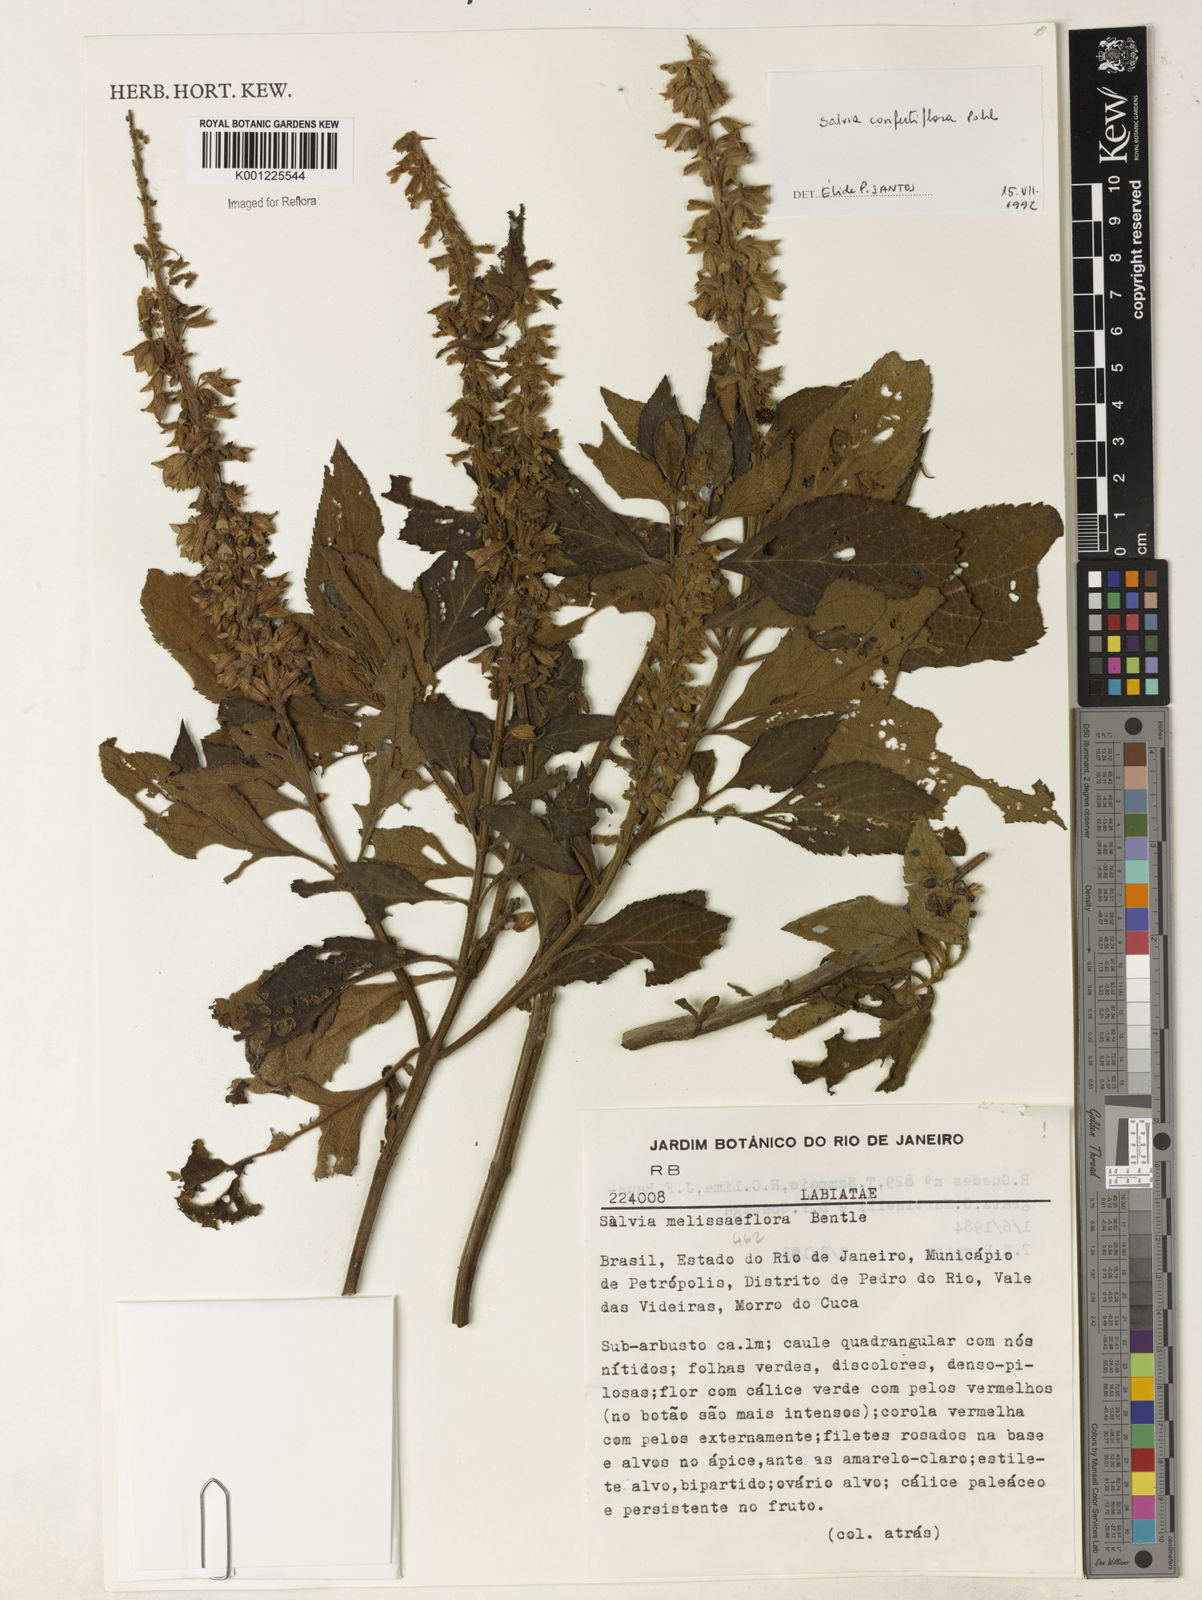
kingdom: Plantae
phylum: Tracheophyta
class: Magnoliopsida
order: Lamiales
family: Lamiaceae
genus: Salvia
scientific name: Salvia confertiflora
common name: Sabra-spike sage
